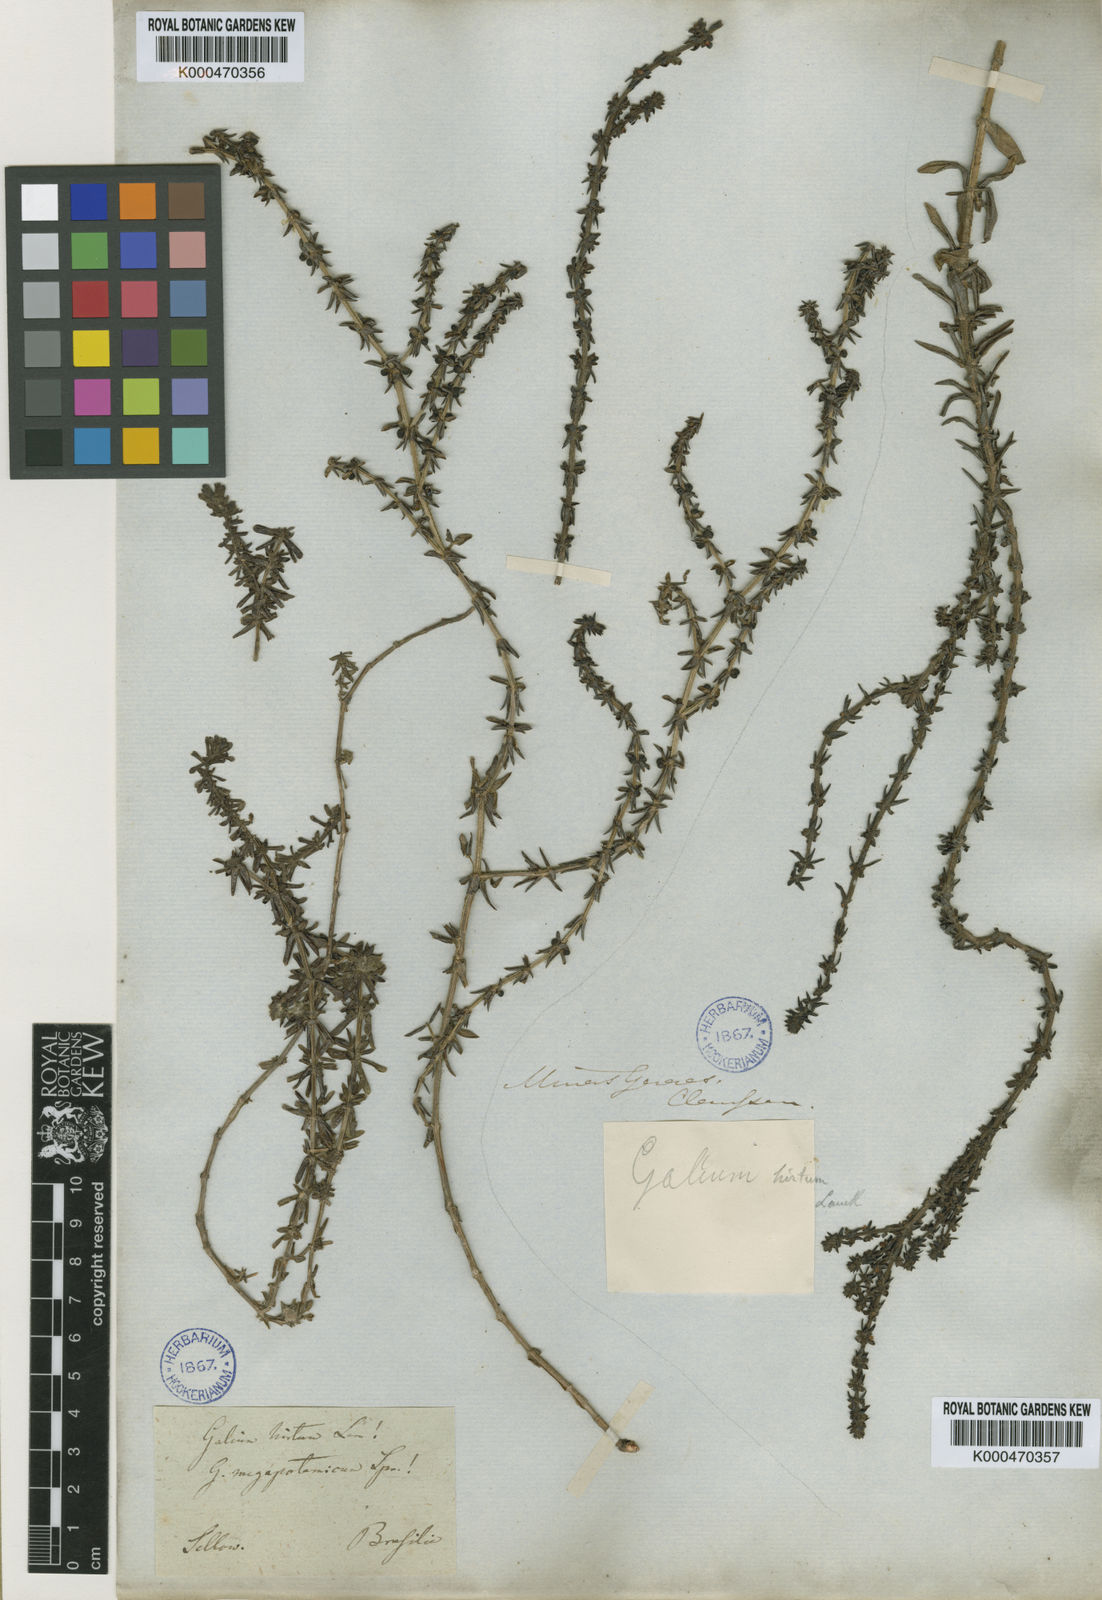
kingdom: Plantae
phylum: Tracheophyta
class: Magnoliopsida
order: Gentianales
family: Rubiaceae
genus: Galium
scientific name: Galium megapotamicum
